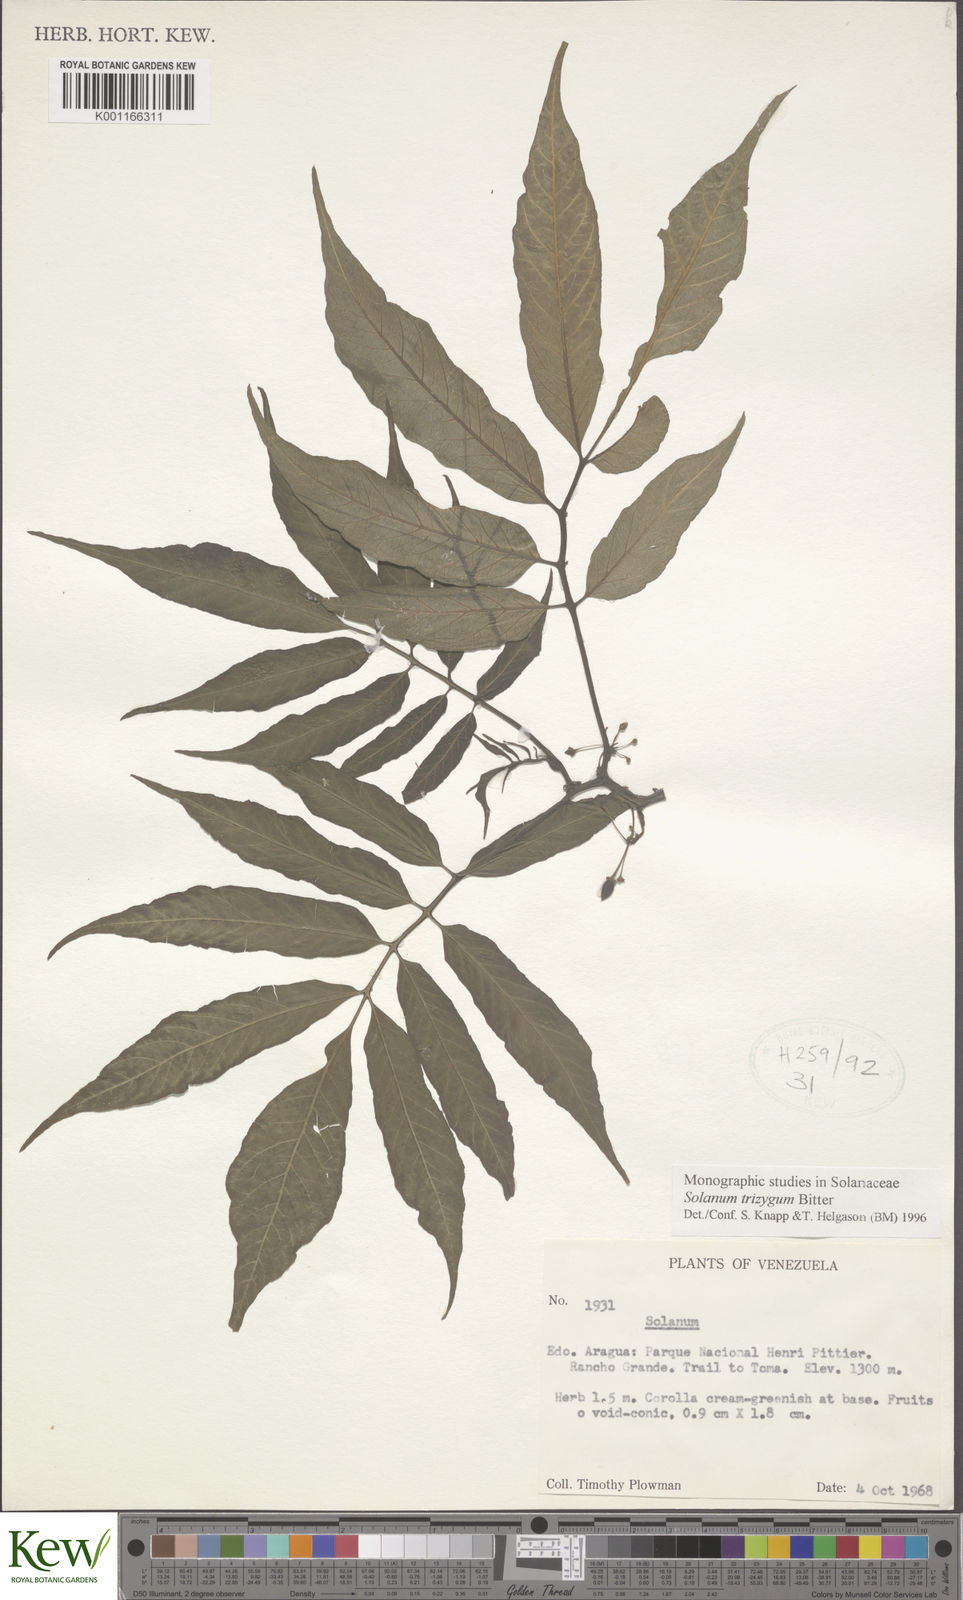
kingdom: Plantae
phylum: Tracheophyta
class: Magnoliopsida
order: Solanales
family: Solanaceae
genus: Solanum
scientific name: Solanum trizygum
